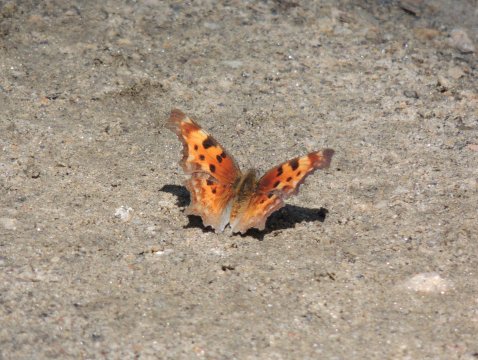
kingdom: Animalia
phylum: Arthropoda
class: Insecta
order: Lepidoptera
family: Nymphalidae
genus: Polygonia
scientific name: Polygonia gracilis
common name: Hoary Comma
